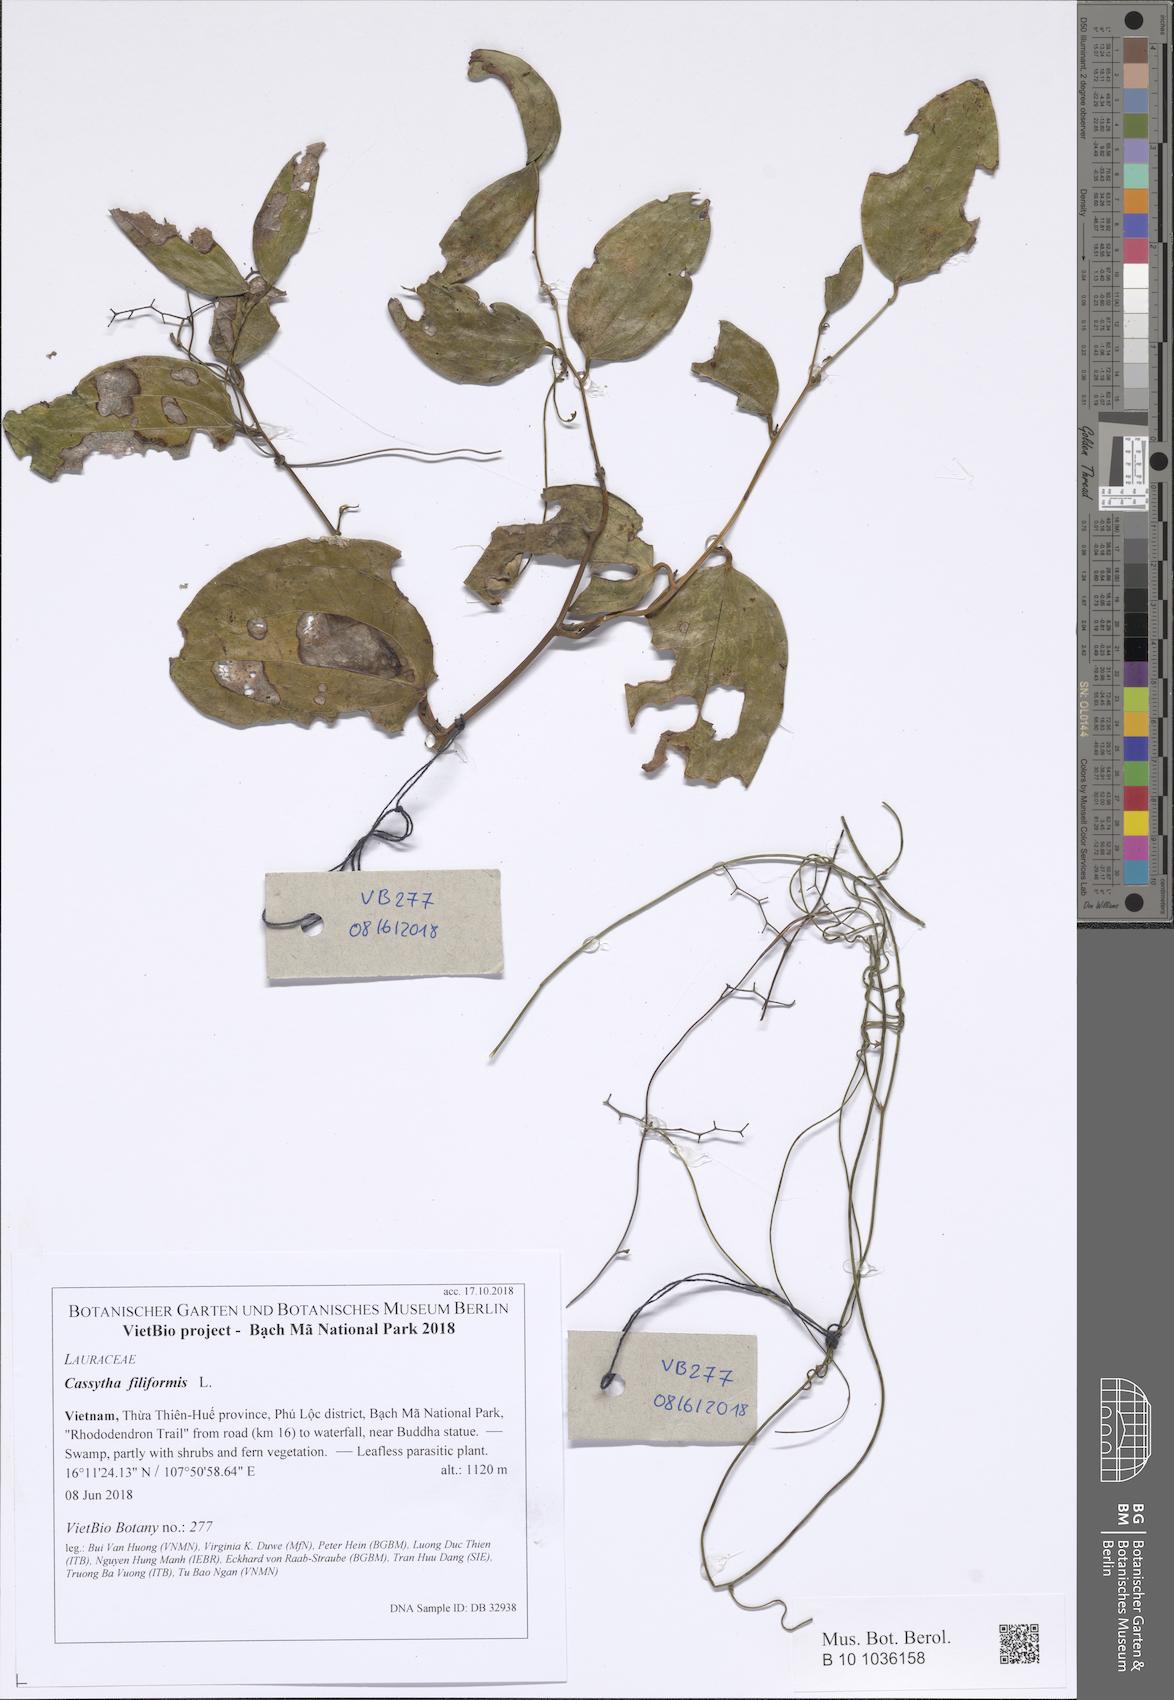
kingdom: Plantae
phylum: Tracheophyta
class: Magnoliopsida
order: Laurales
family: Lauraceae
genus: Cassytha
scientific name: Cassytha filiformis
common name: Dodder-laurel
